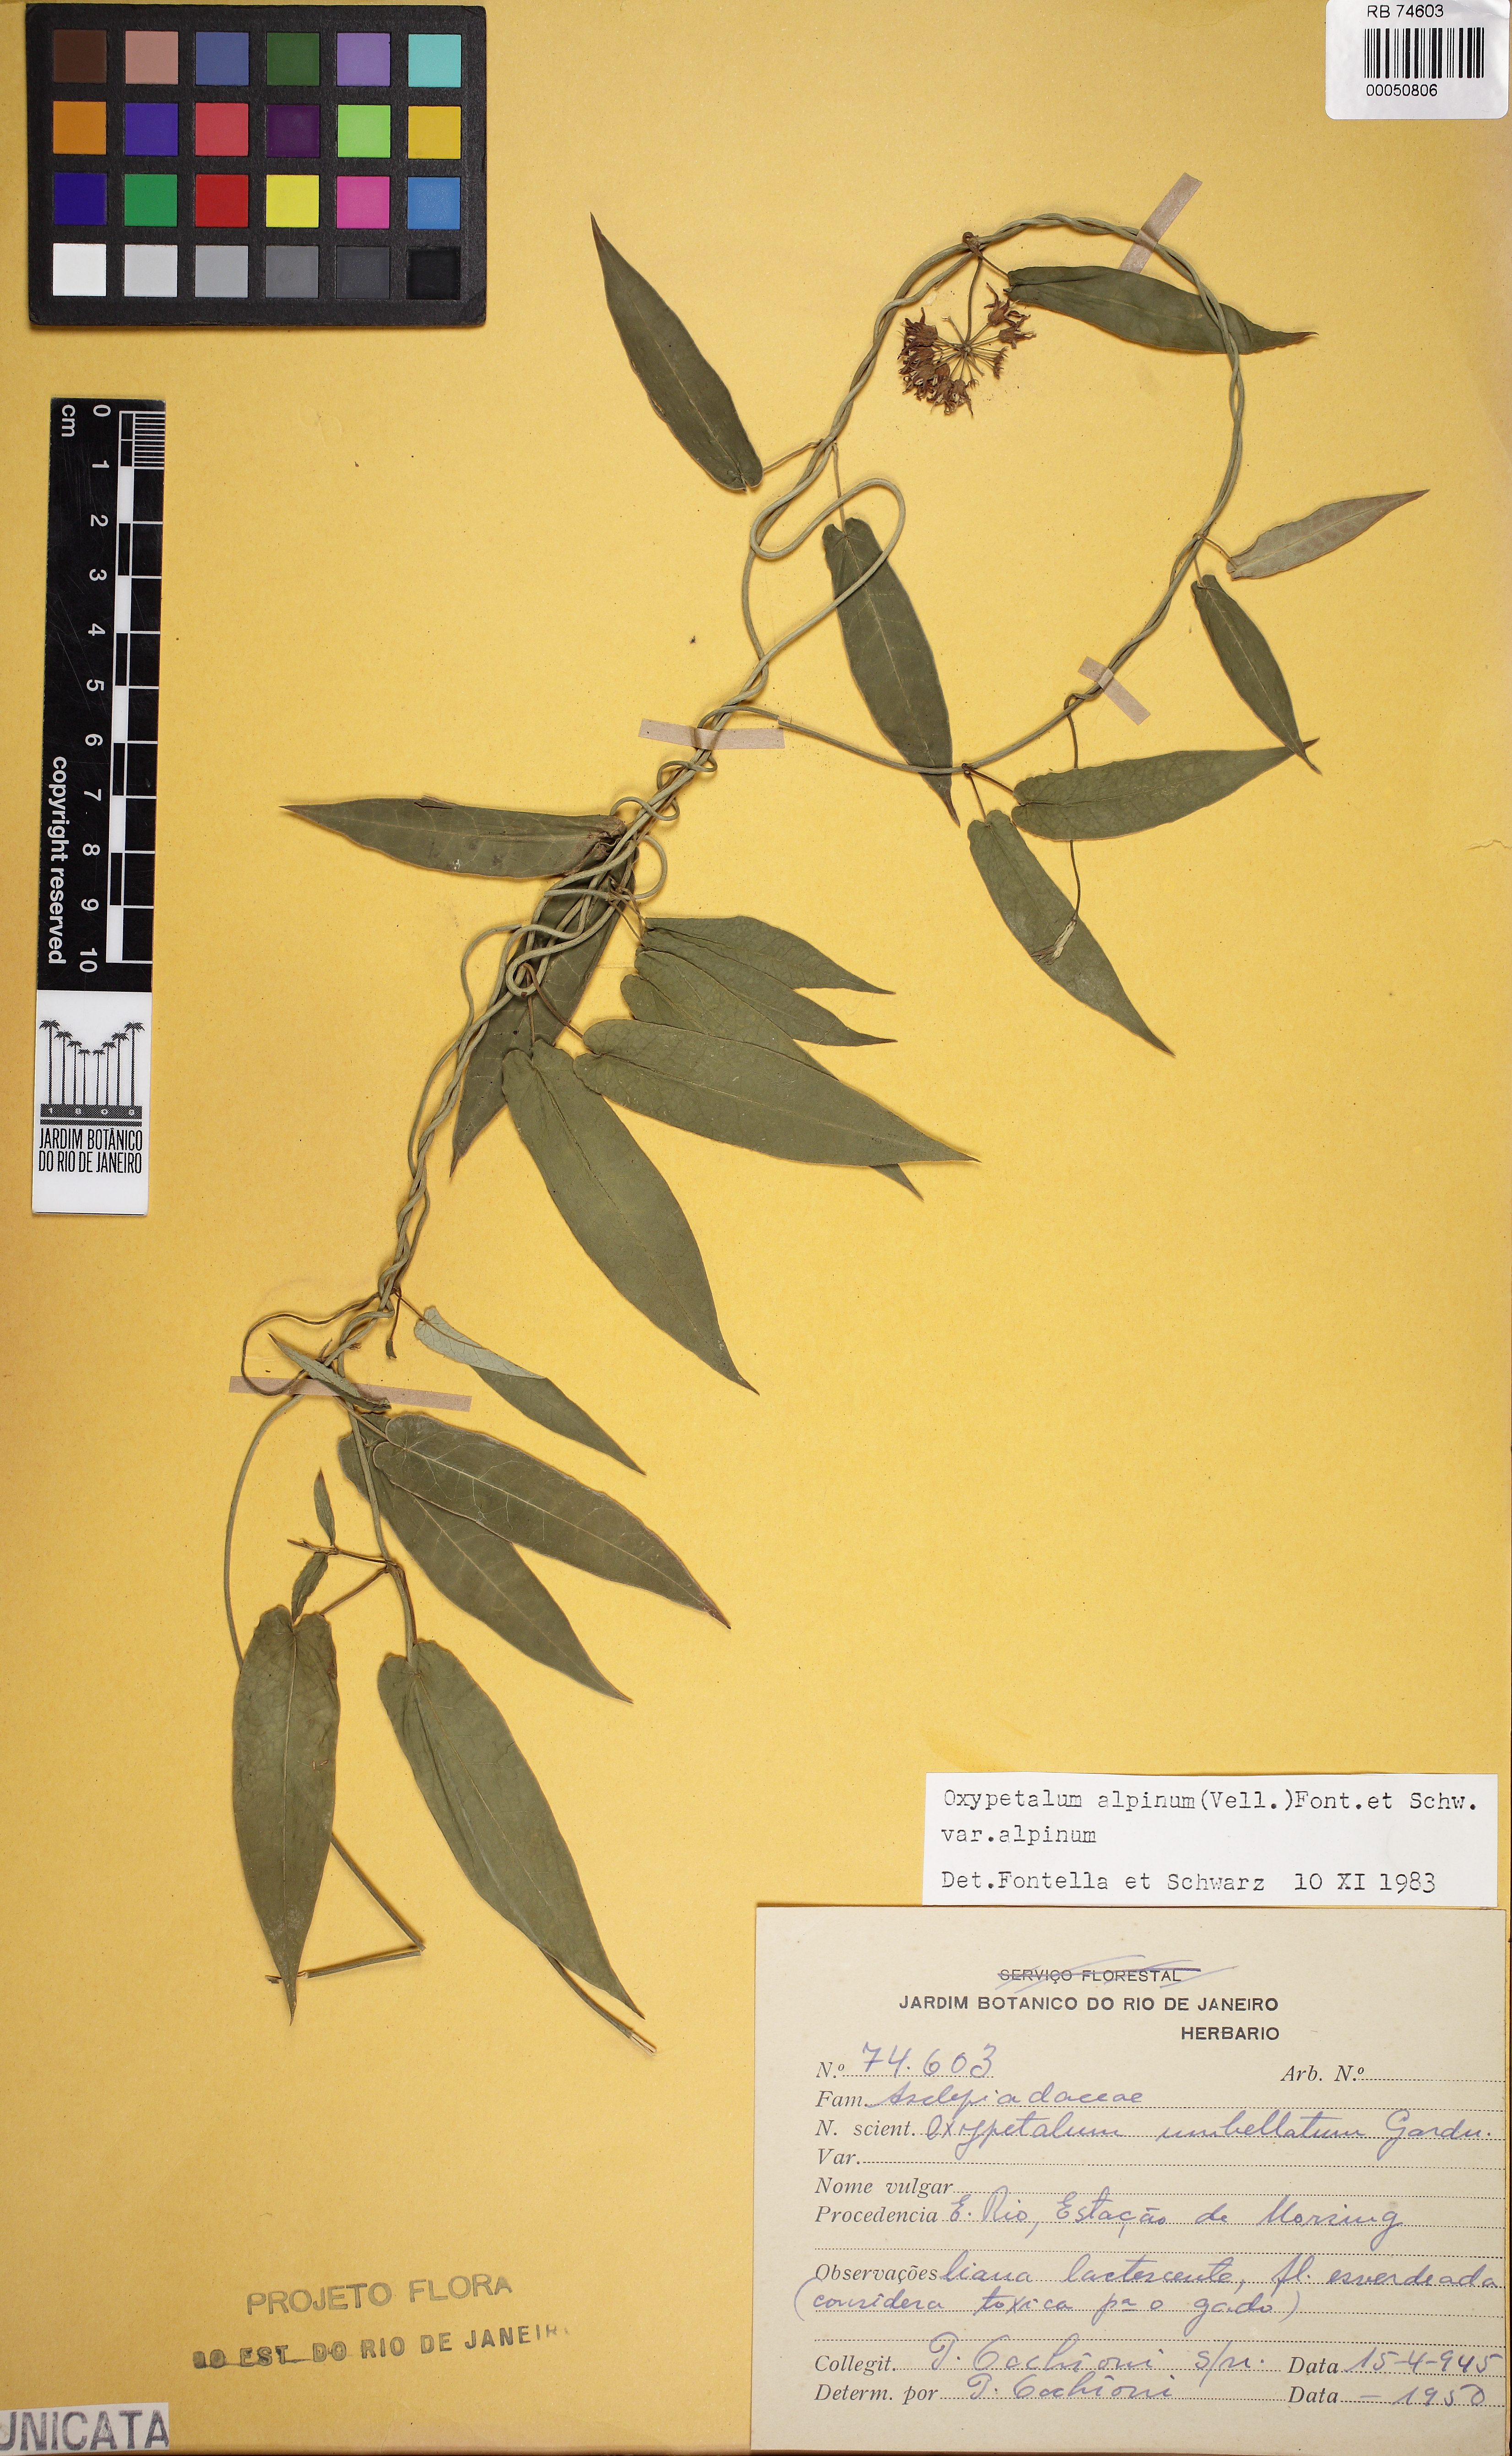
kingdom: Plantae
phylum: Tracheophyta
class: Magnoliopsida
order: Gentianales
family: Apocynaceae
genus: Oxypetalum
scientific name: Oxypetalum alpinum
